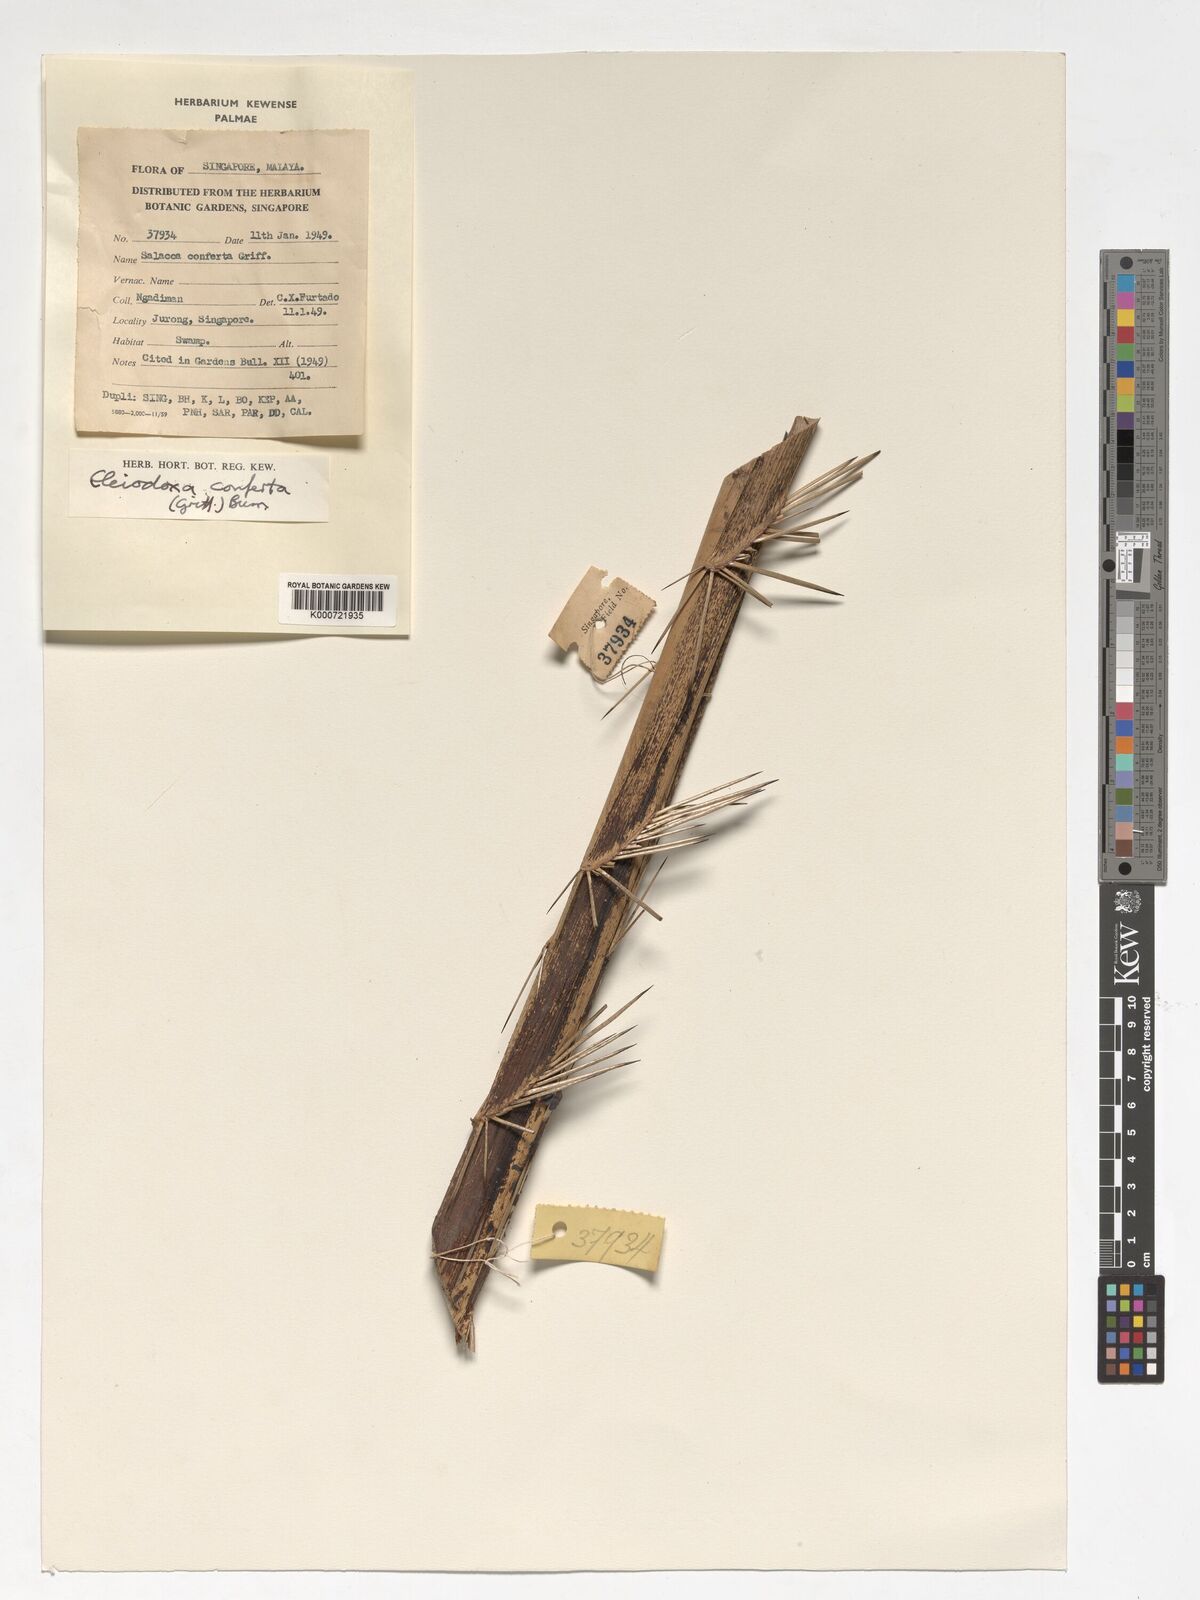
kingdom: Plantae
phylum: Tracheophyta
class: Liliopsida
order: Arecales
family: Arecaceae
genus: Eleiodoxa
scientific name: Eleiodoxa conferta
